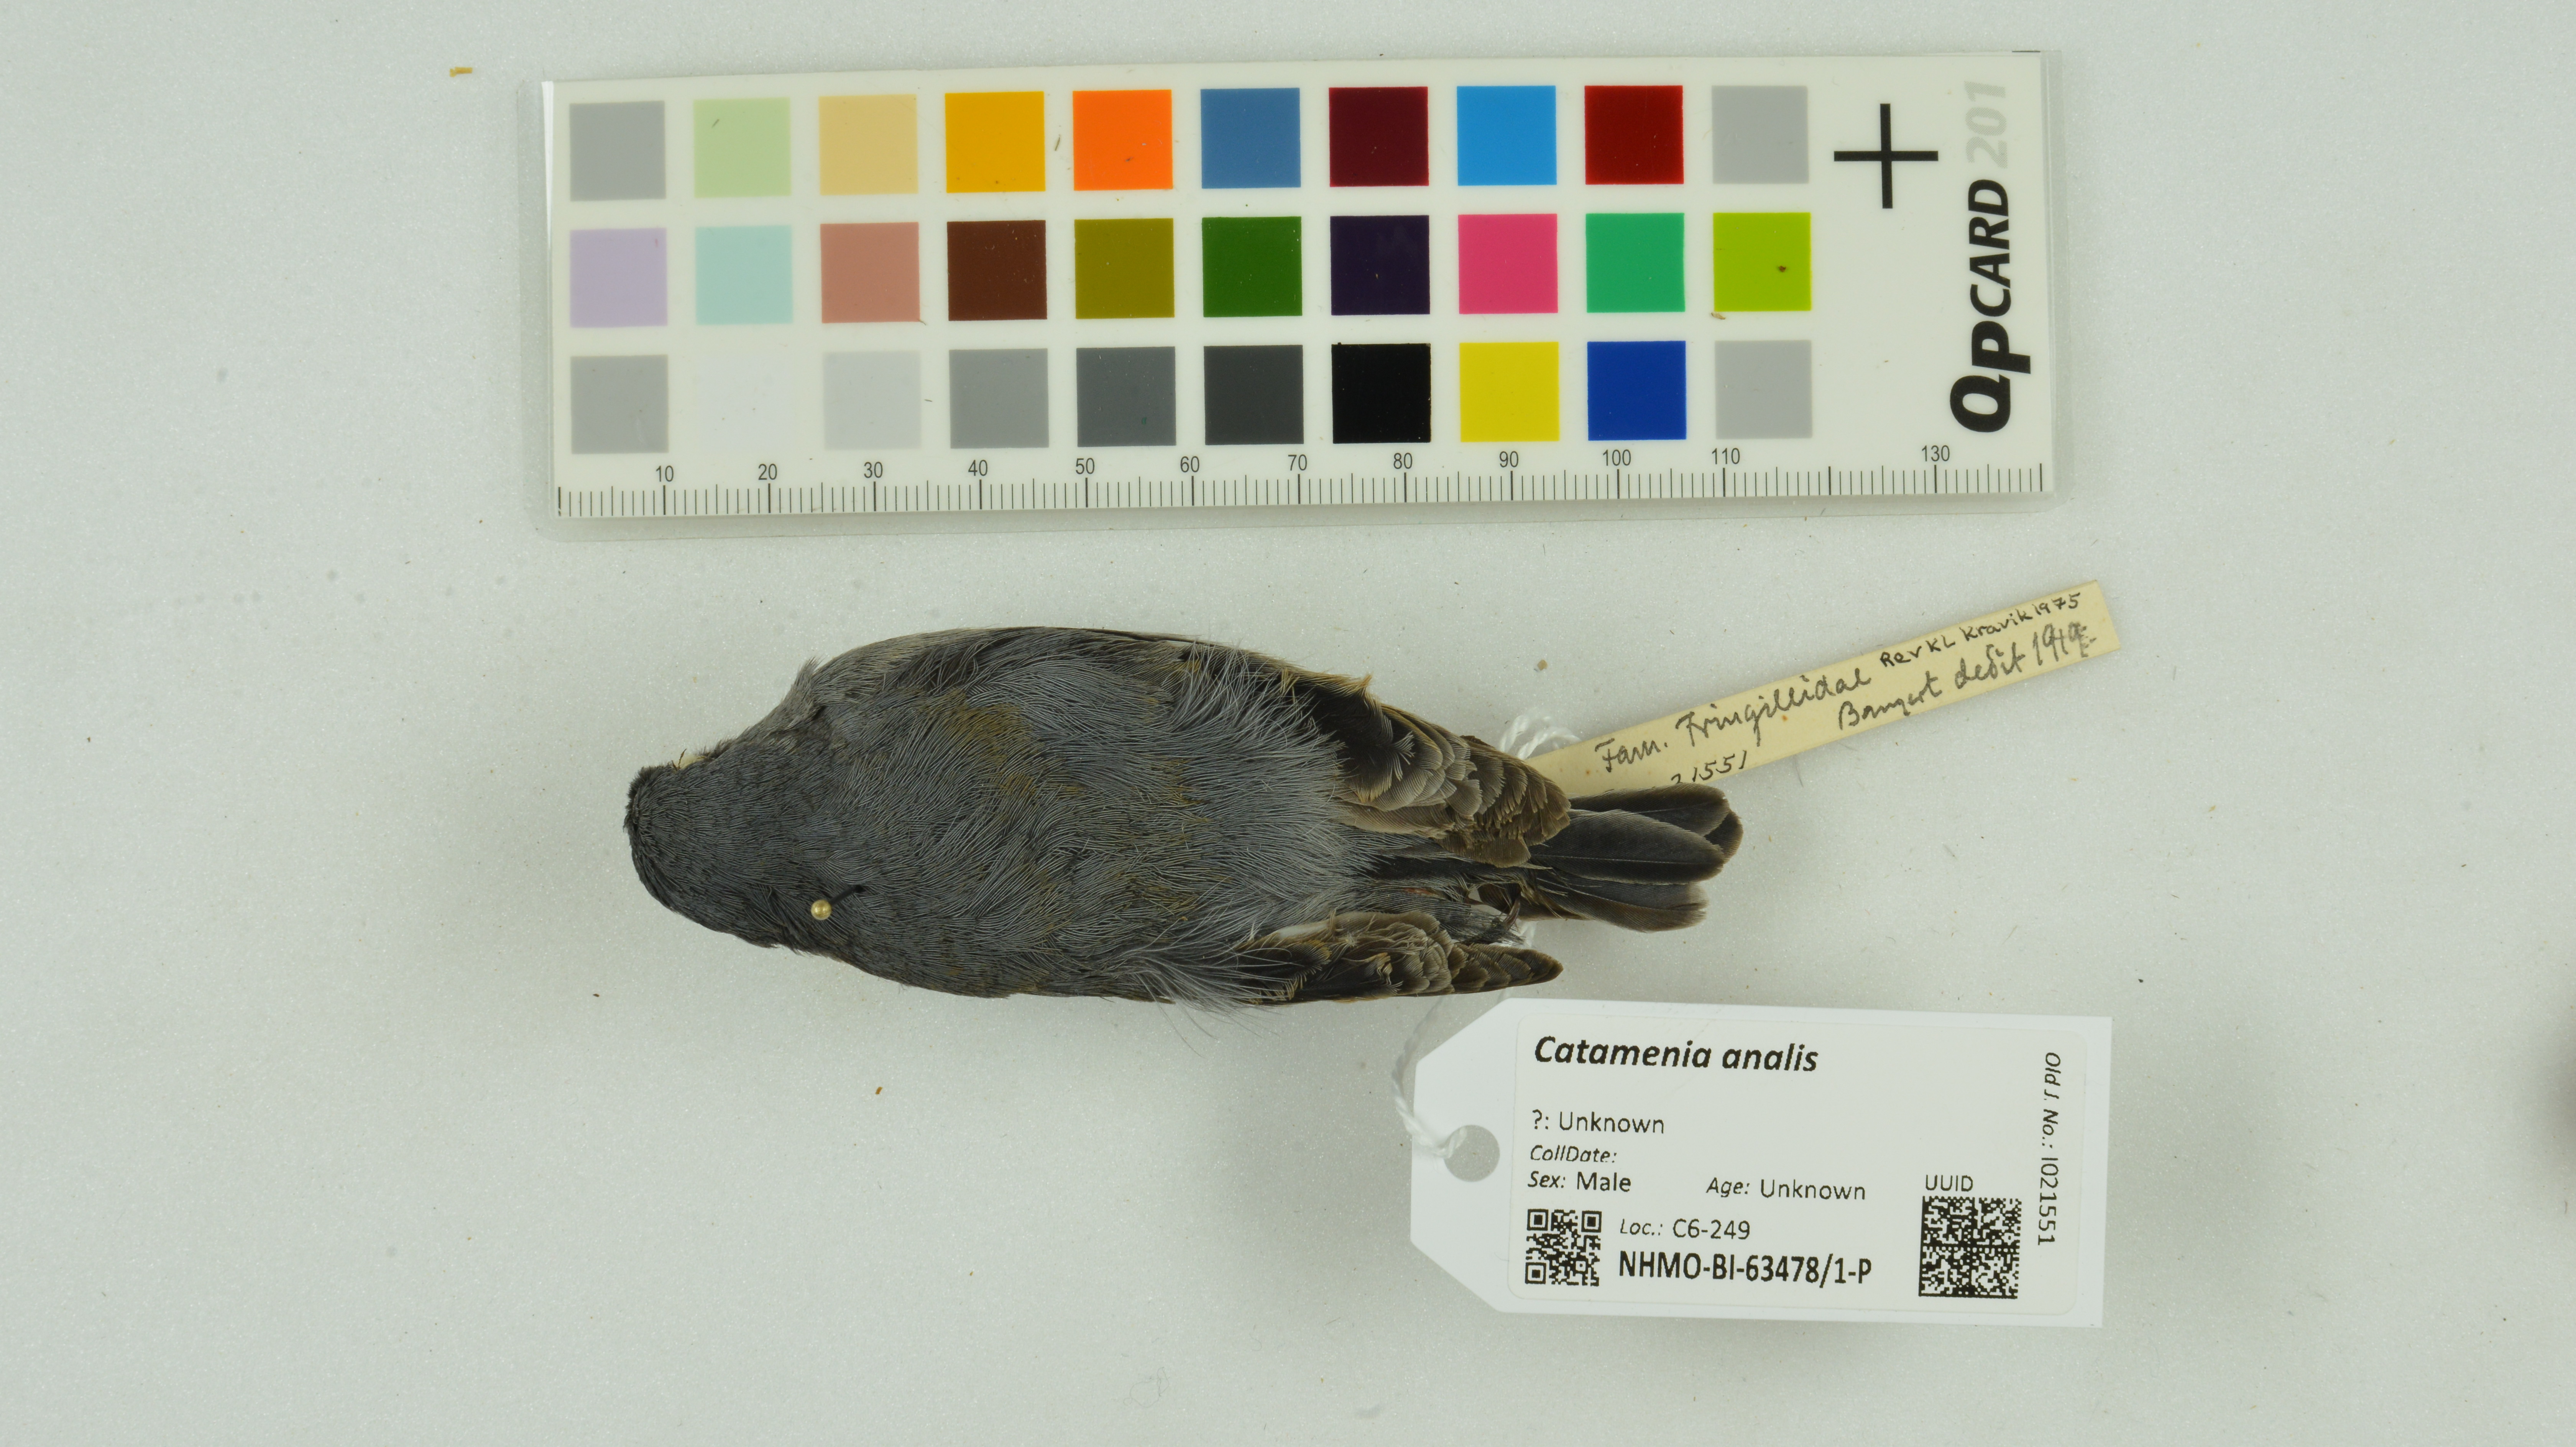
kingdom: Animalia
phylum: Chordata
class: Aves
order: Passeriformes
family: Thraupidae
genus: Catamenia
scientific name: Catamenia analis
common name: Band-tailed seedeater
